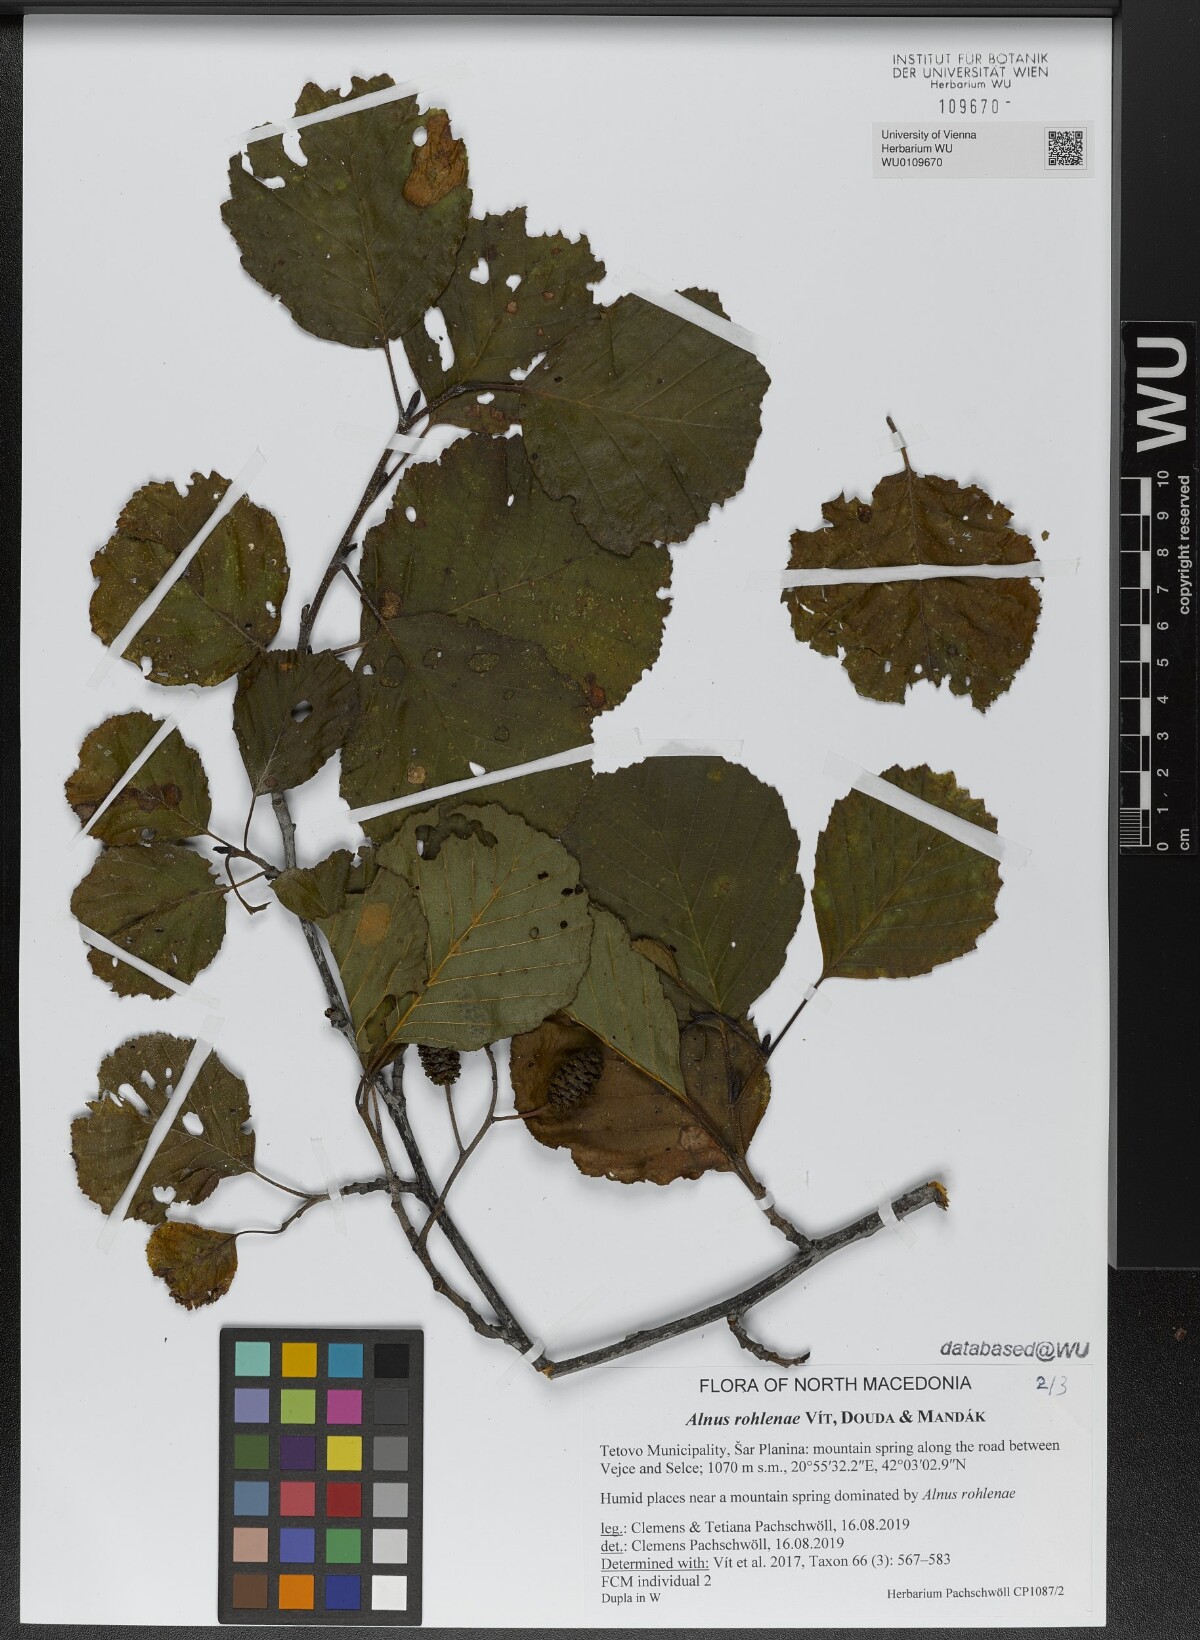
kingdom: Plantae
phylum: Tracheophyta
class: Magnoliopsida
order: Fagales
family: Betulaceae
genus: Alnus
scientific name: Alnus rohlenae
